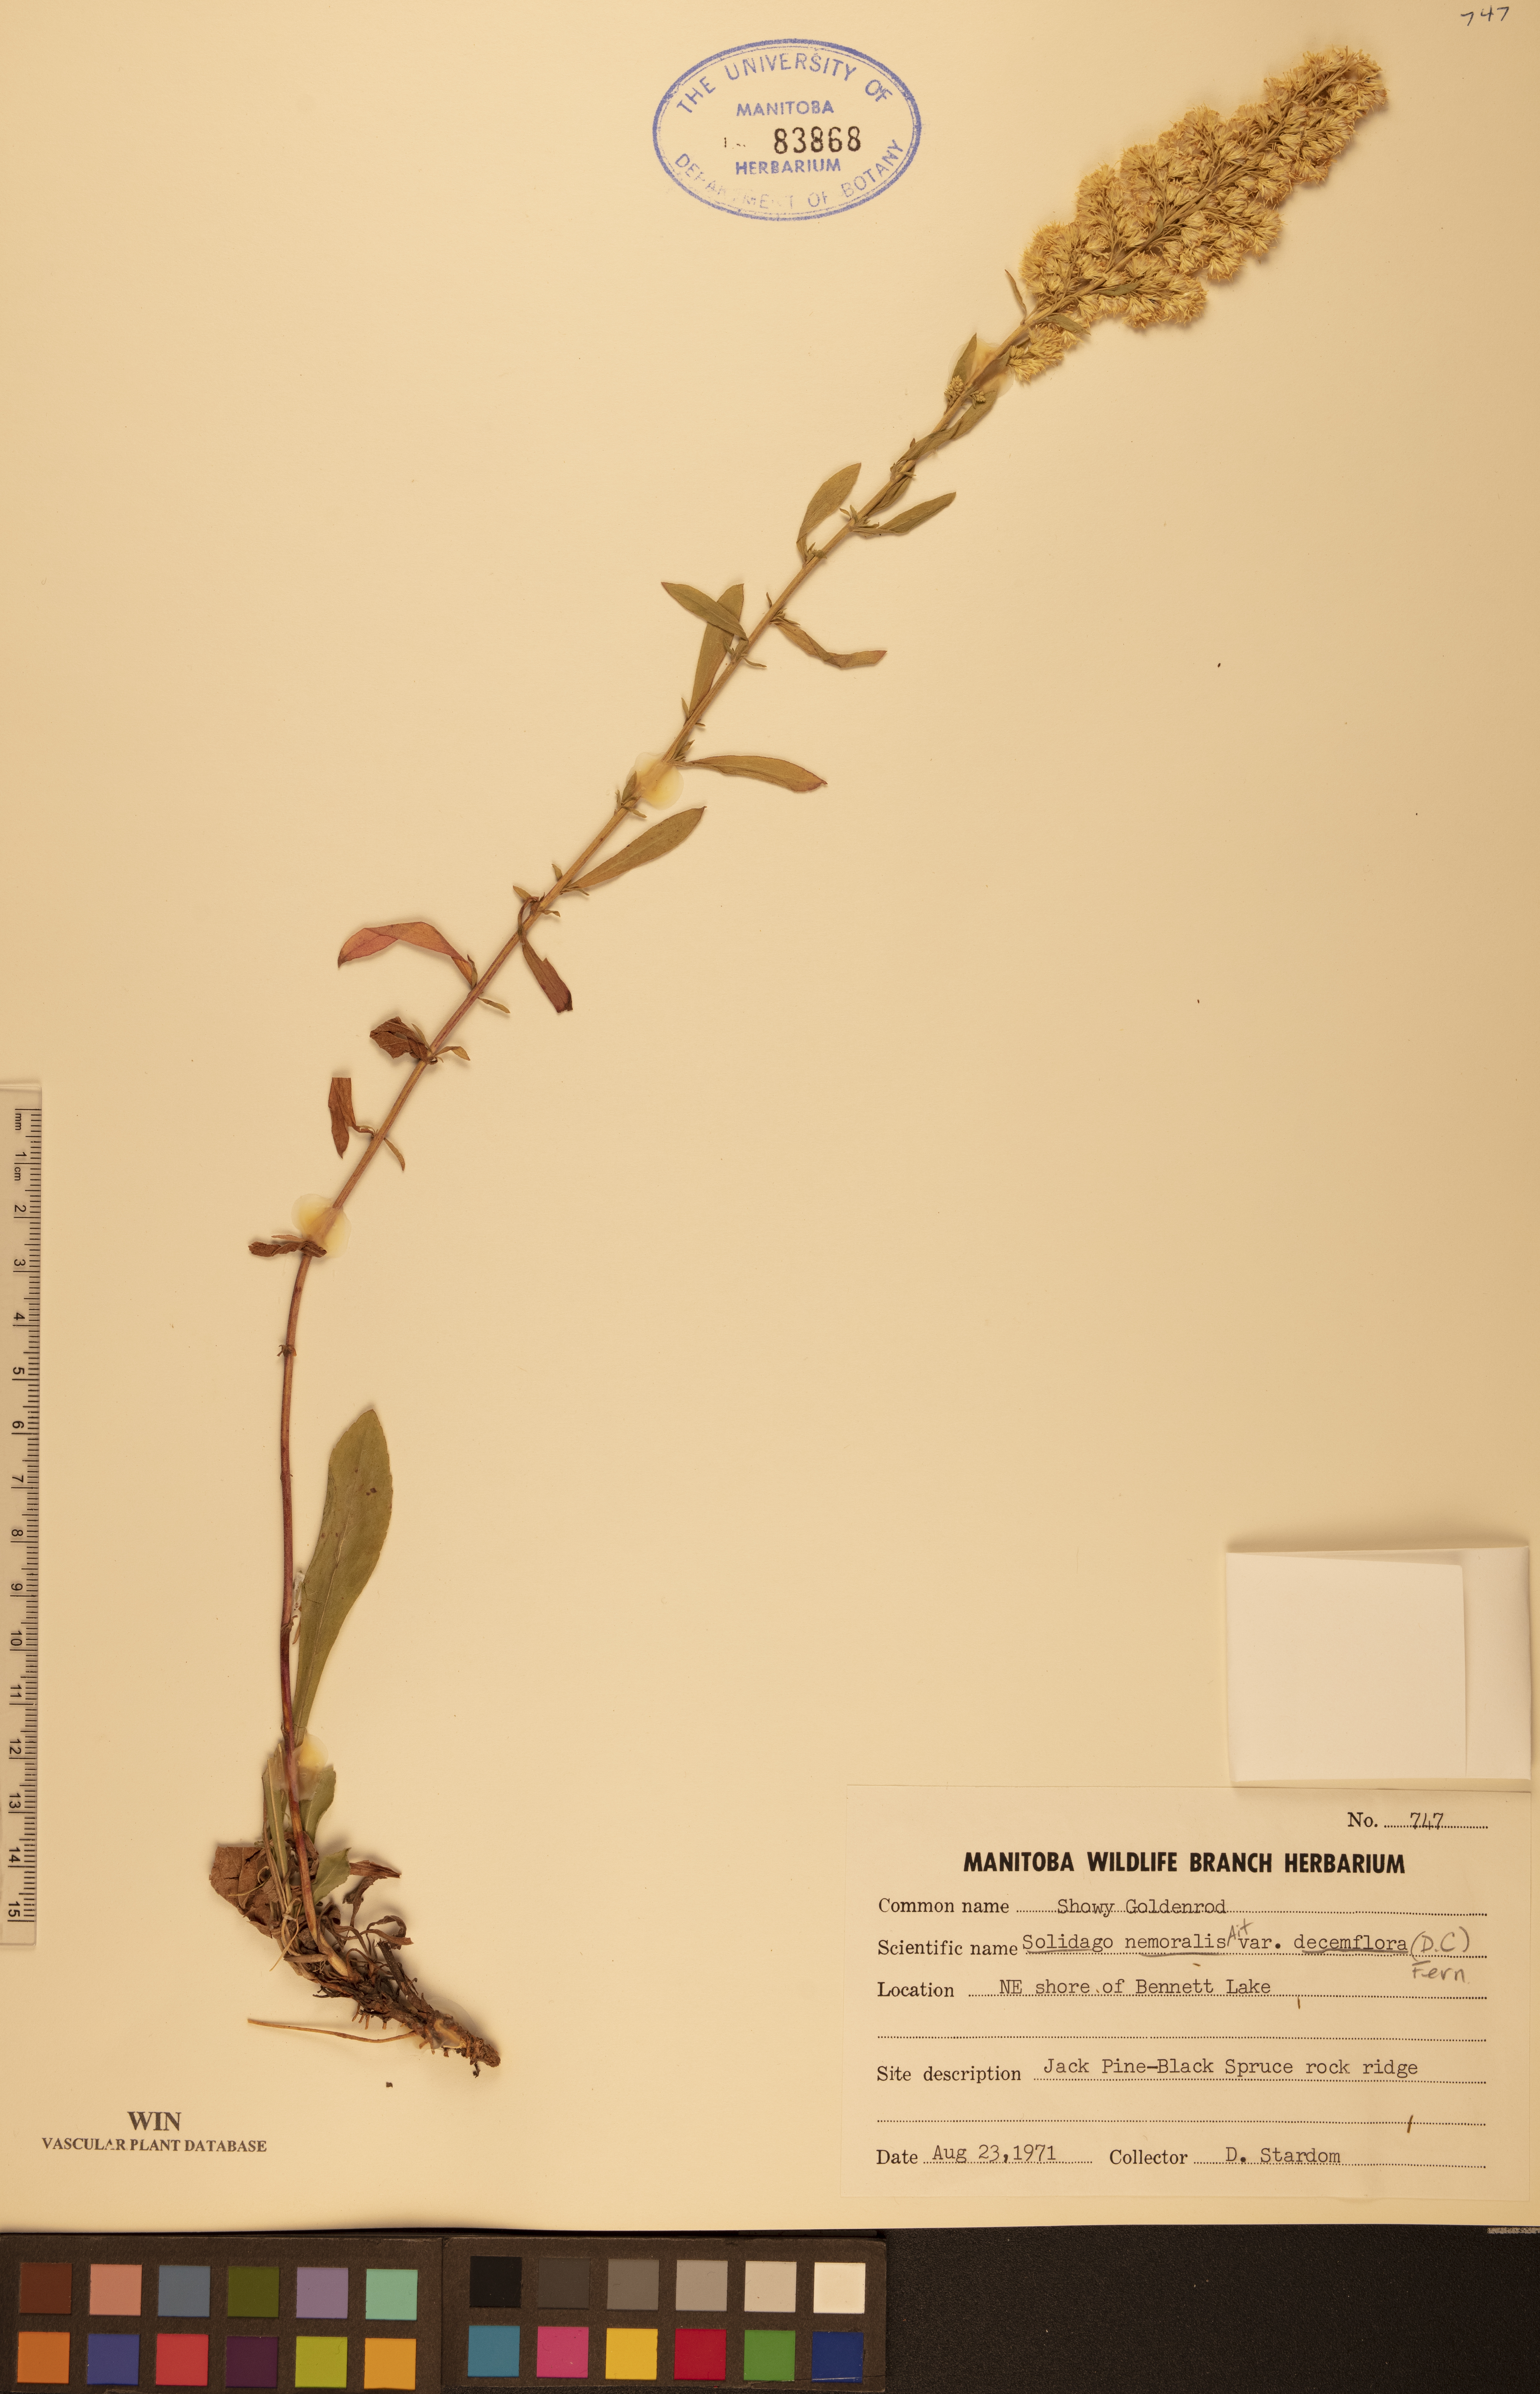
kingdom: Plantae
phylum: Tracheophyta
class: Magnoliopsida
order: Asterales
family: Asteraceae
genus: Solidago
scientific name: Solidago decemflora
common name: Prairie grey-stemmed goldenrod
